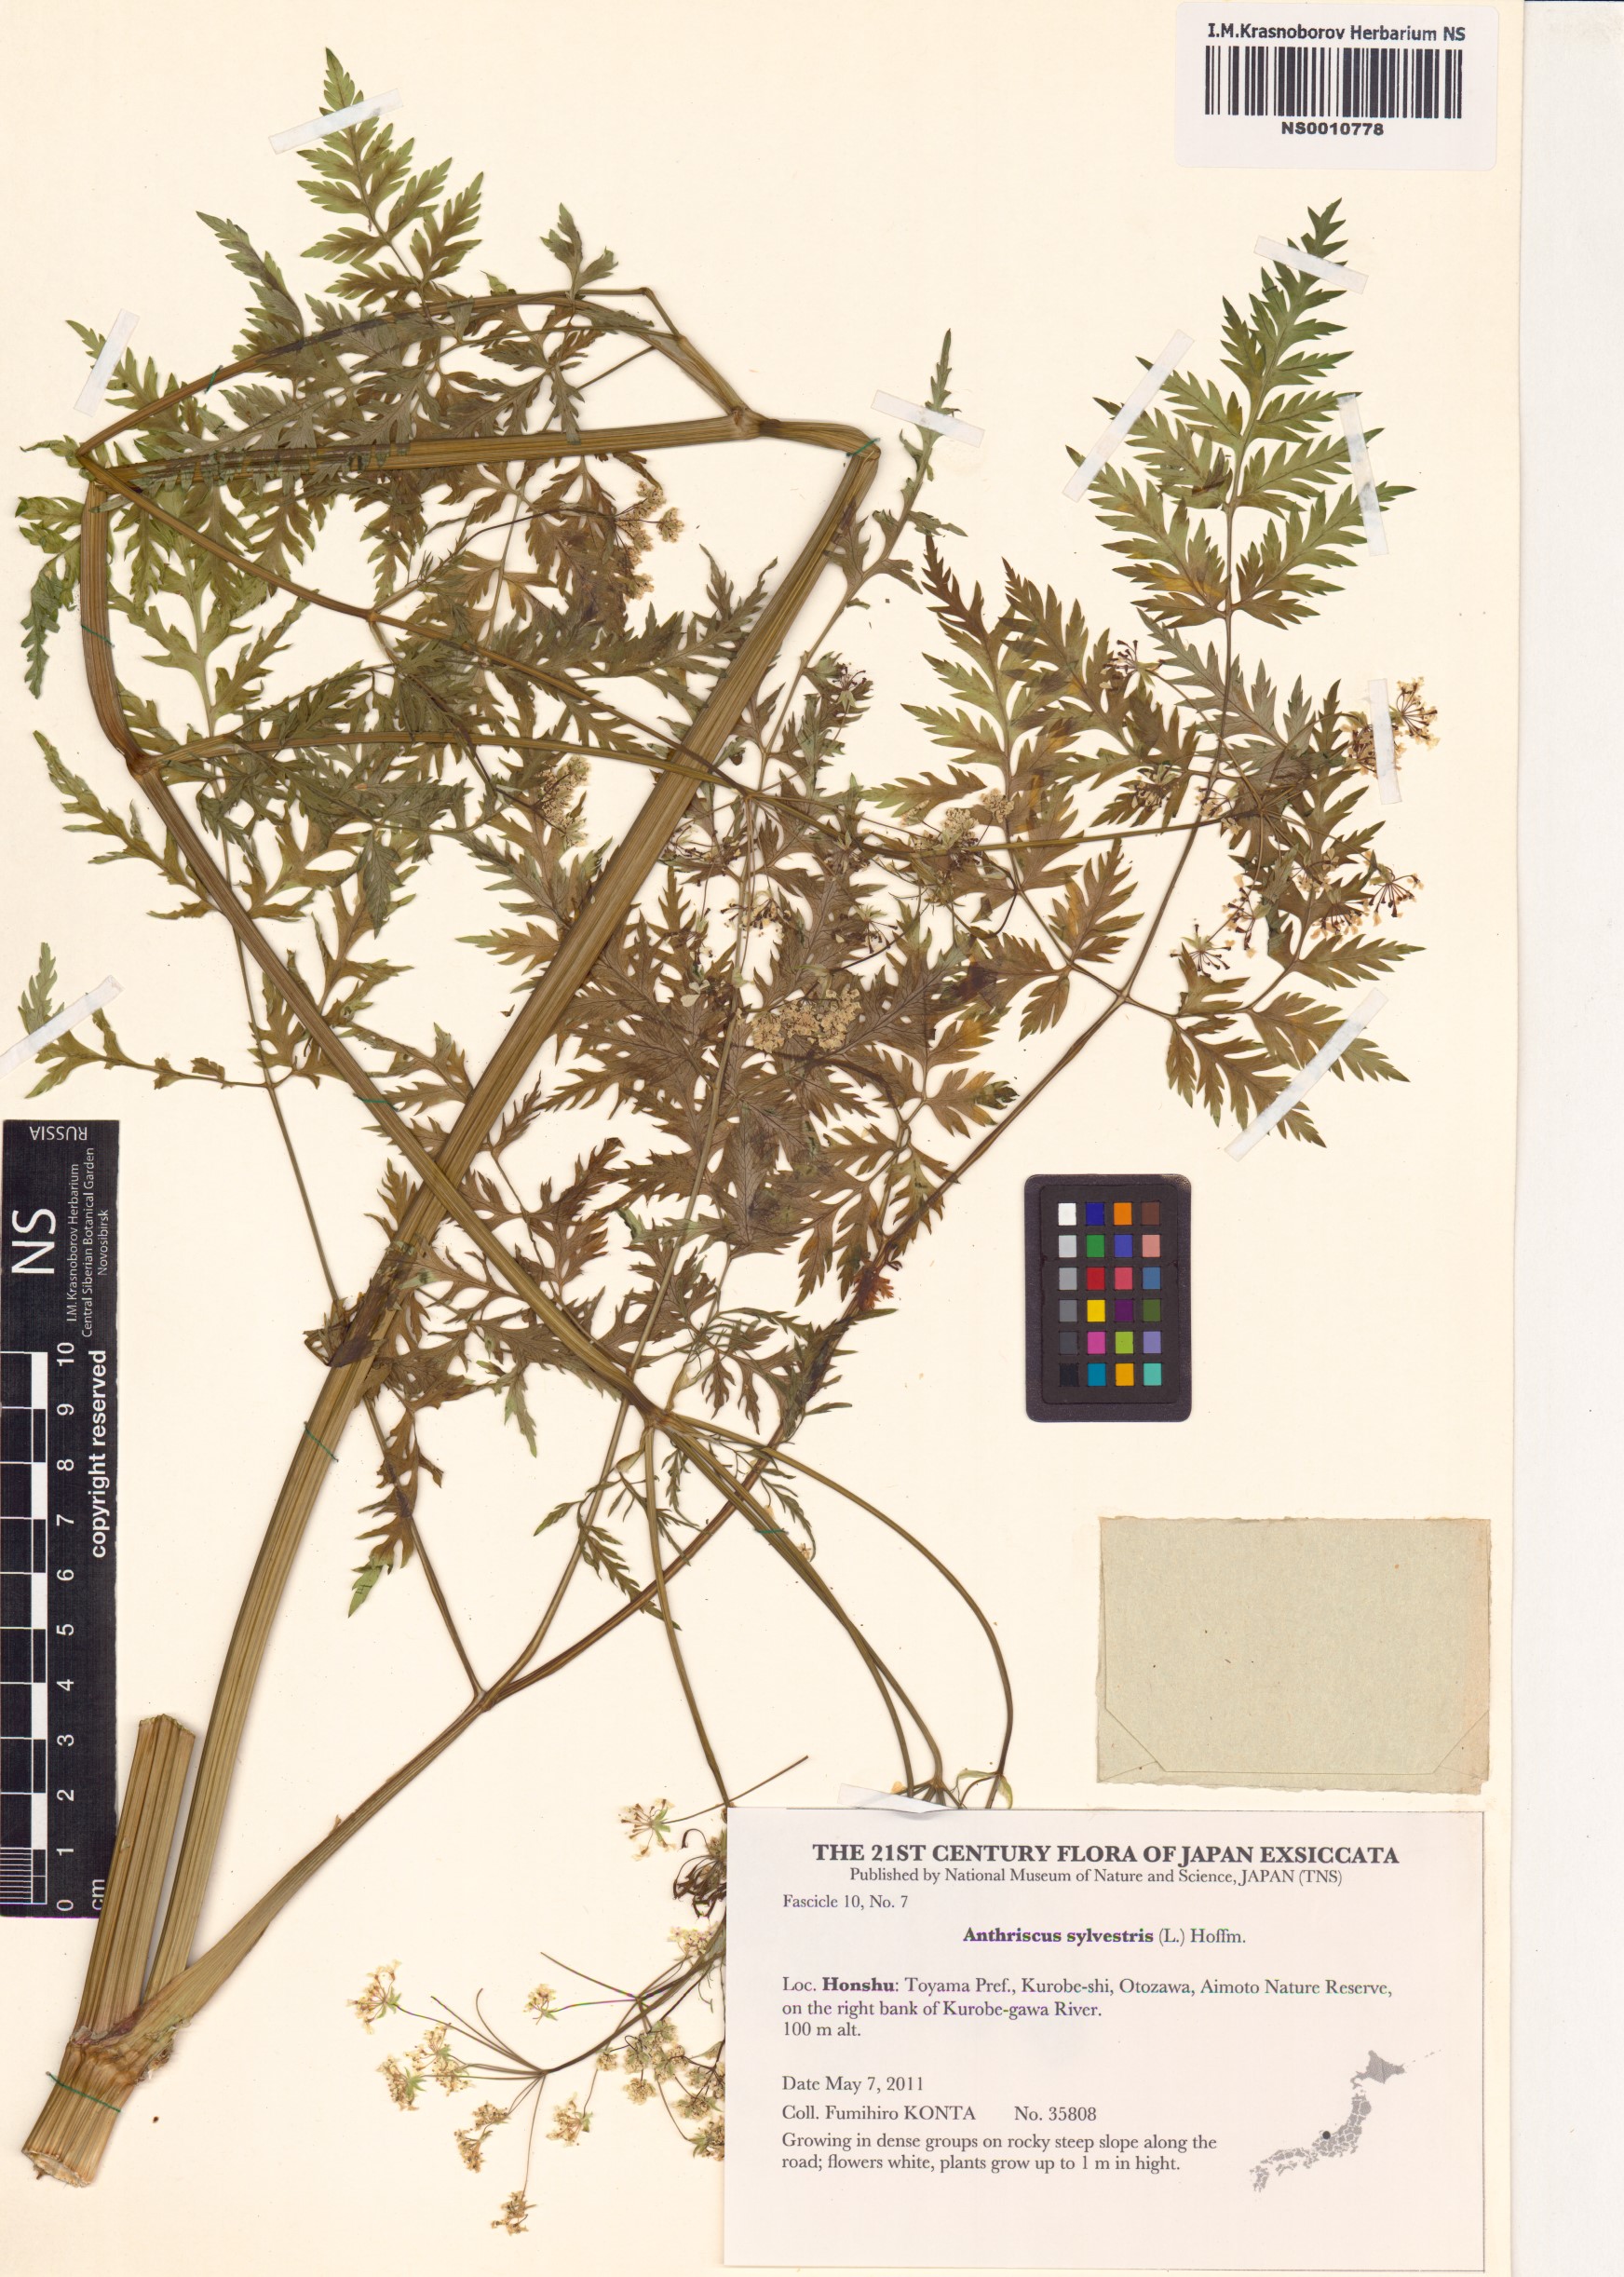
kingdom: Plantae
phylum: Tracheophyta
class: Magnoliopsida
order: Apiales
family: Apiaceae
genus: Anthriscus
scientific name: Anthriscus sylvestris
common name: Cow parsley
